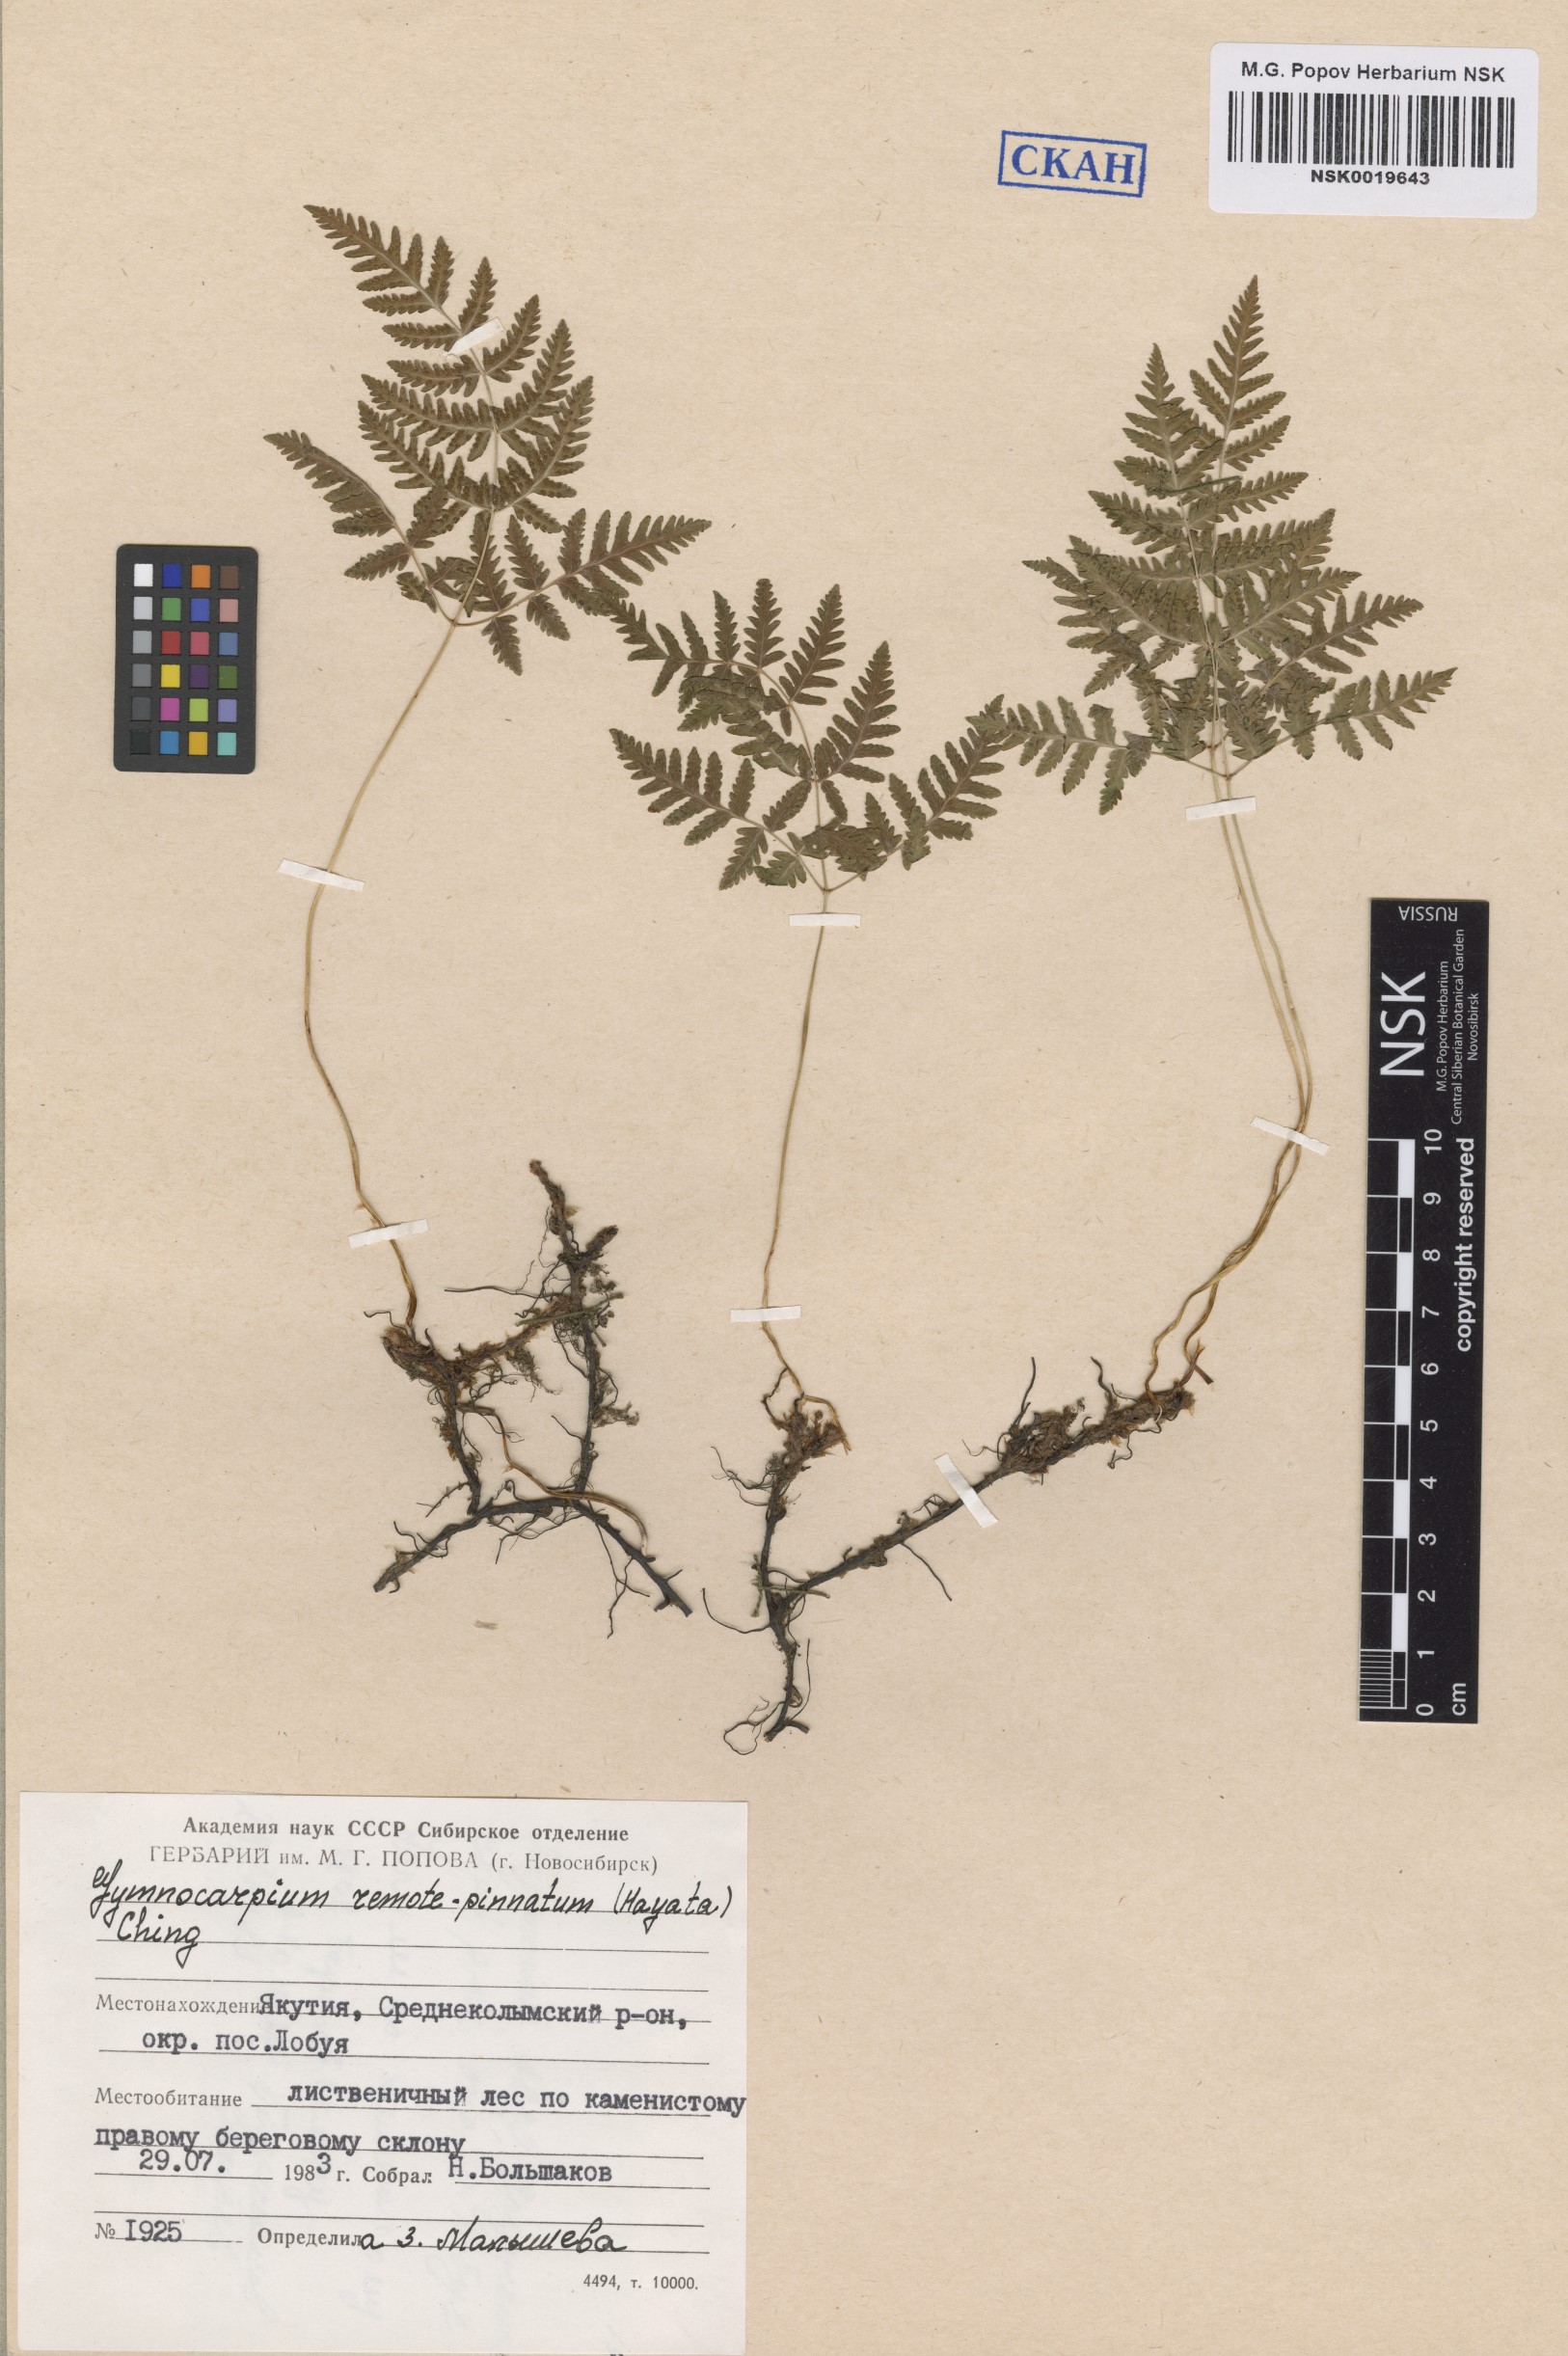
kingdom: Plantae
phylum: Tracheophyta
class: Polypodiopsida
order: Polypodiales
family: Cystopteridaceae
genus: Gymnocarpium
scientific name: Gymnocarpium continentale
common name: Asian oak fern
